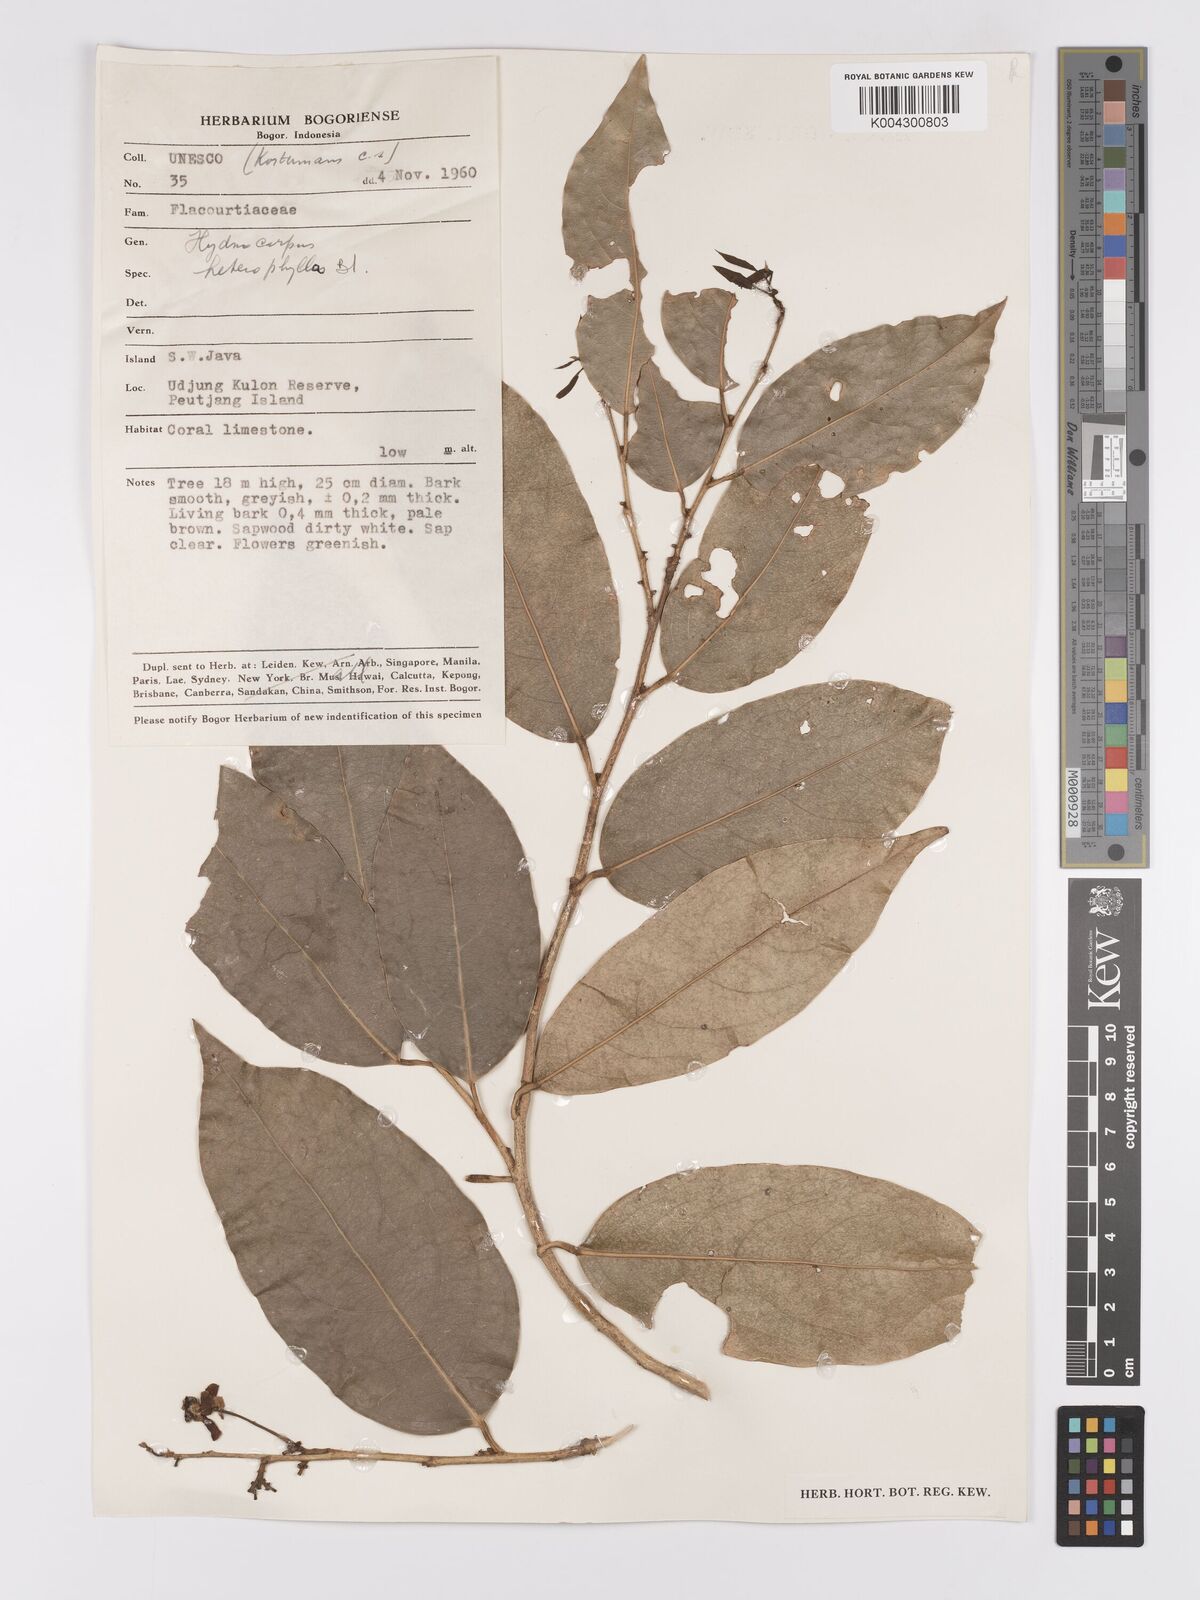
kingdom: Plantae
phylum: Tracheophyta
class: Magnoliopsida
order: Malpighiales
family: Achariaceae
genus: Hydnocarpus
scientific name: Hydnocarpus heterophyllus
